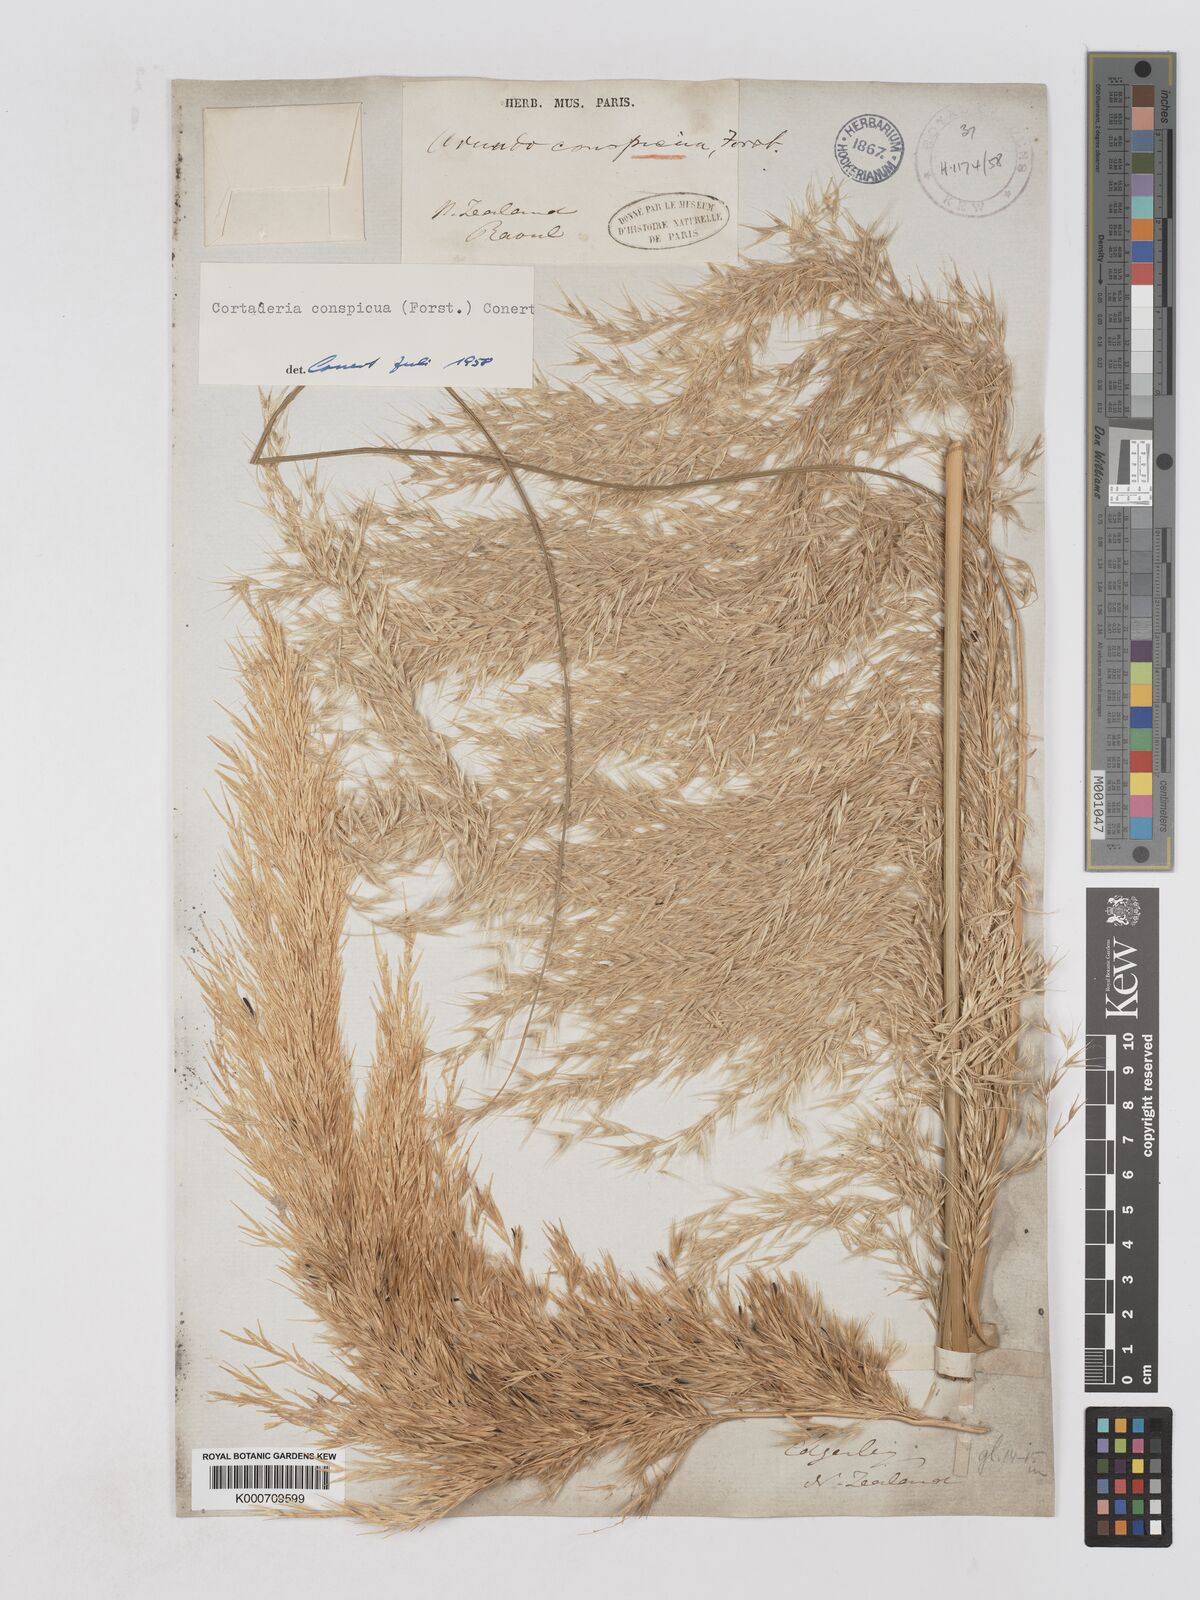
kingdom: Plantae
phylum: Tracheophyta
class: Liliopsida
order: Poales
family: Poaceae
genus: Austroderia
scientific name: Austroderia richardii
